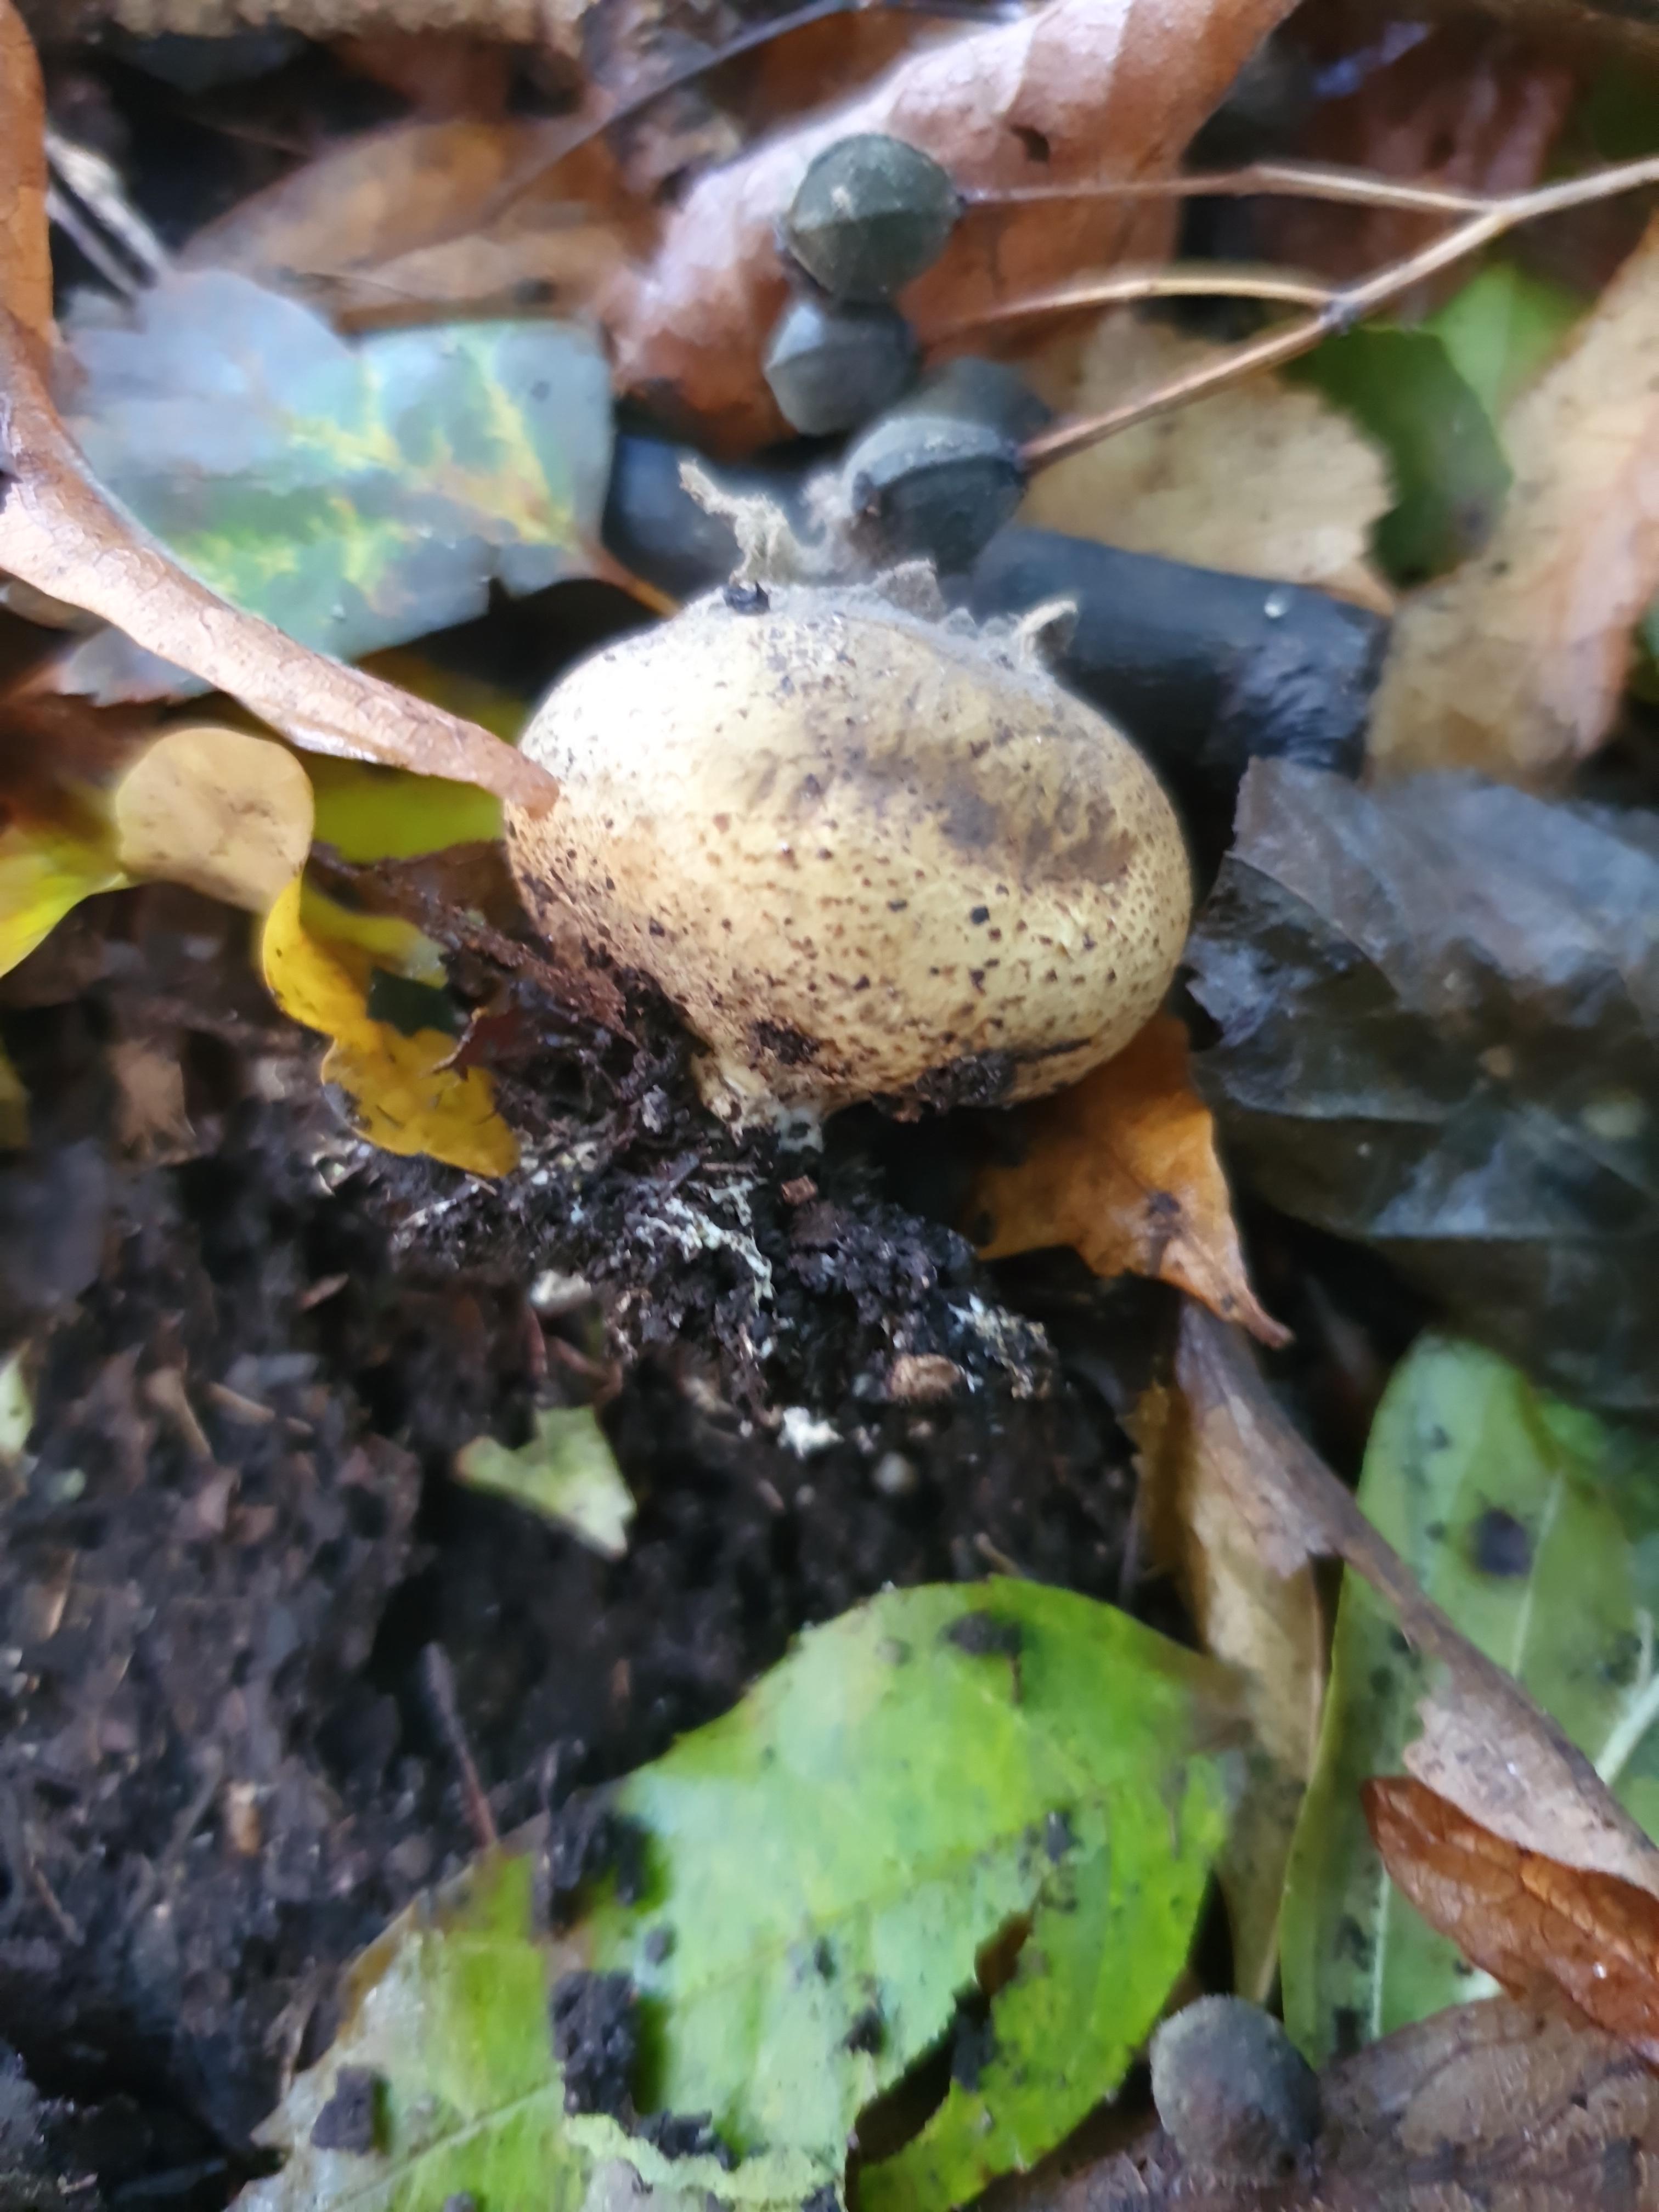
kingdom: Fungi
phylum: Basidiomycota
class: Agaricomycetes
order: Boletales
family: Sclerodermataceae
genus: Scleroderma
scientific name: Scleroderma areolatum
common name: plettet bruskbold
